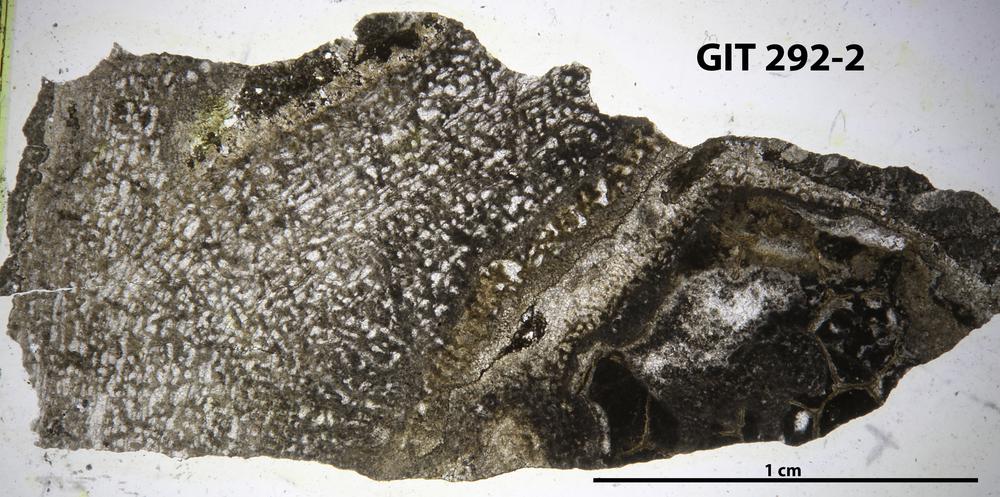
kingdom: Animalia
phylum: Porifera
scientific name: Porifera
